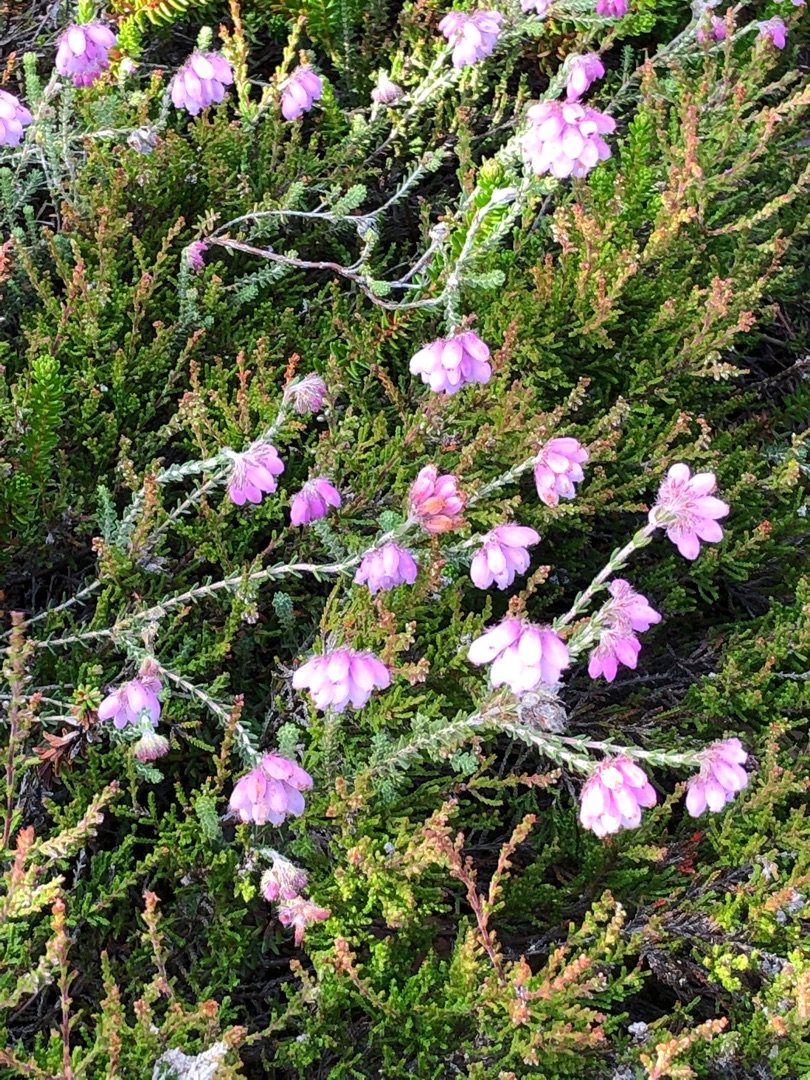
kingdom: Plantae
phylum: Tracheophyta
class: Magnoliopsida
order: Ericales
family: Ericaceae
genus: Erica
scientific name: Erica tetralix
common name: Klokkelyng
